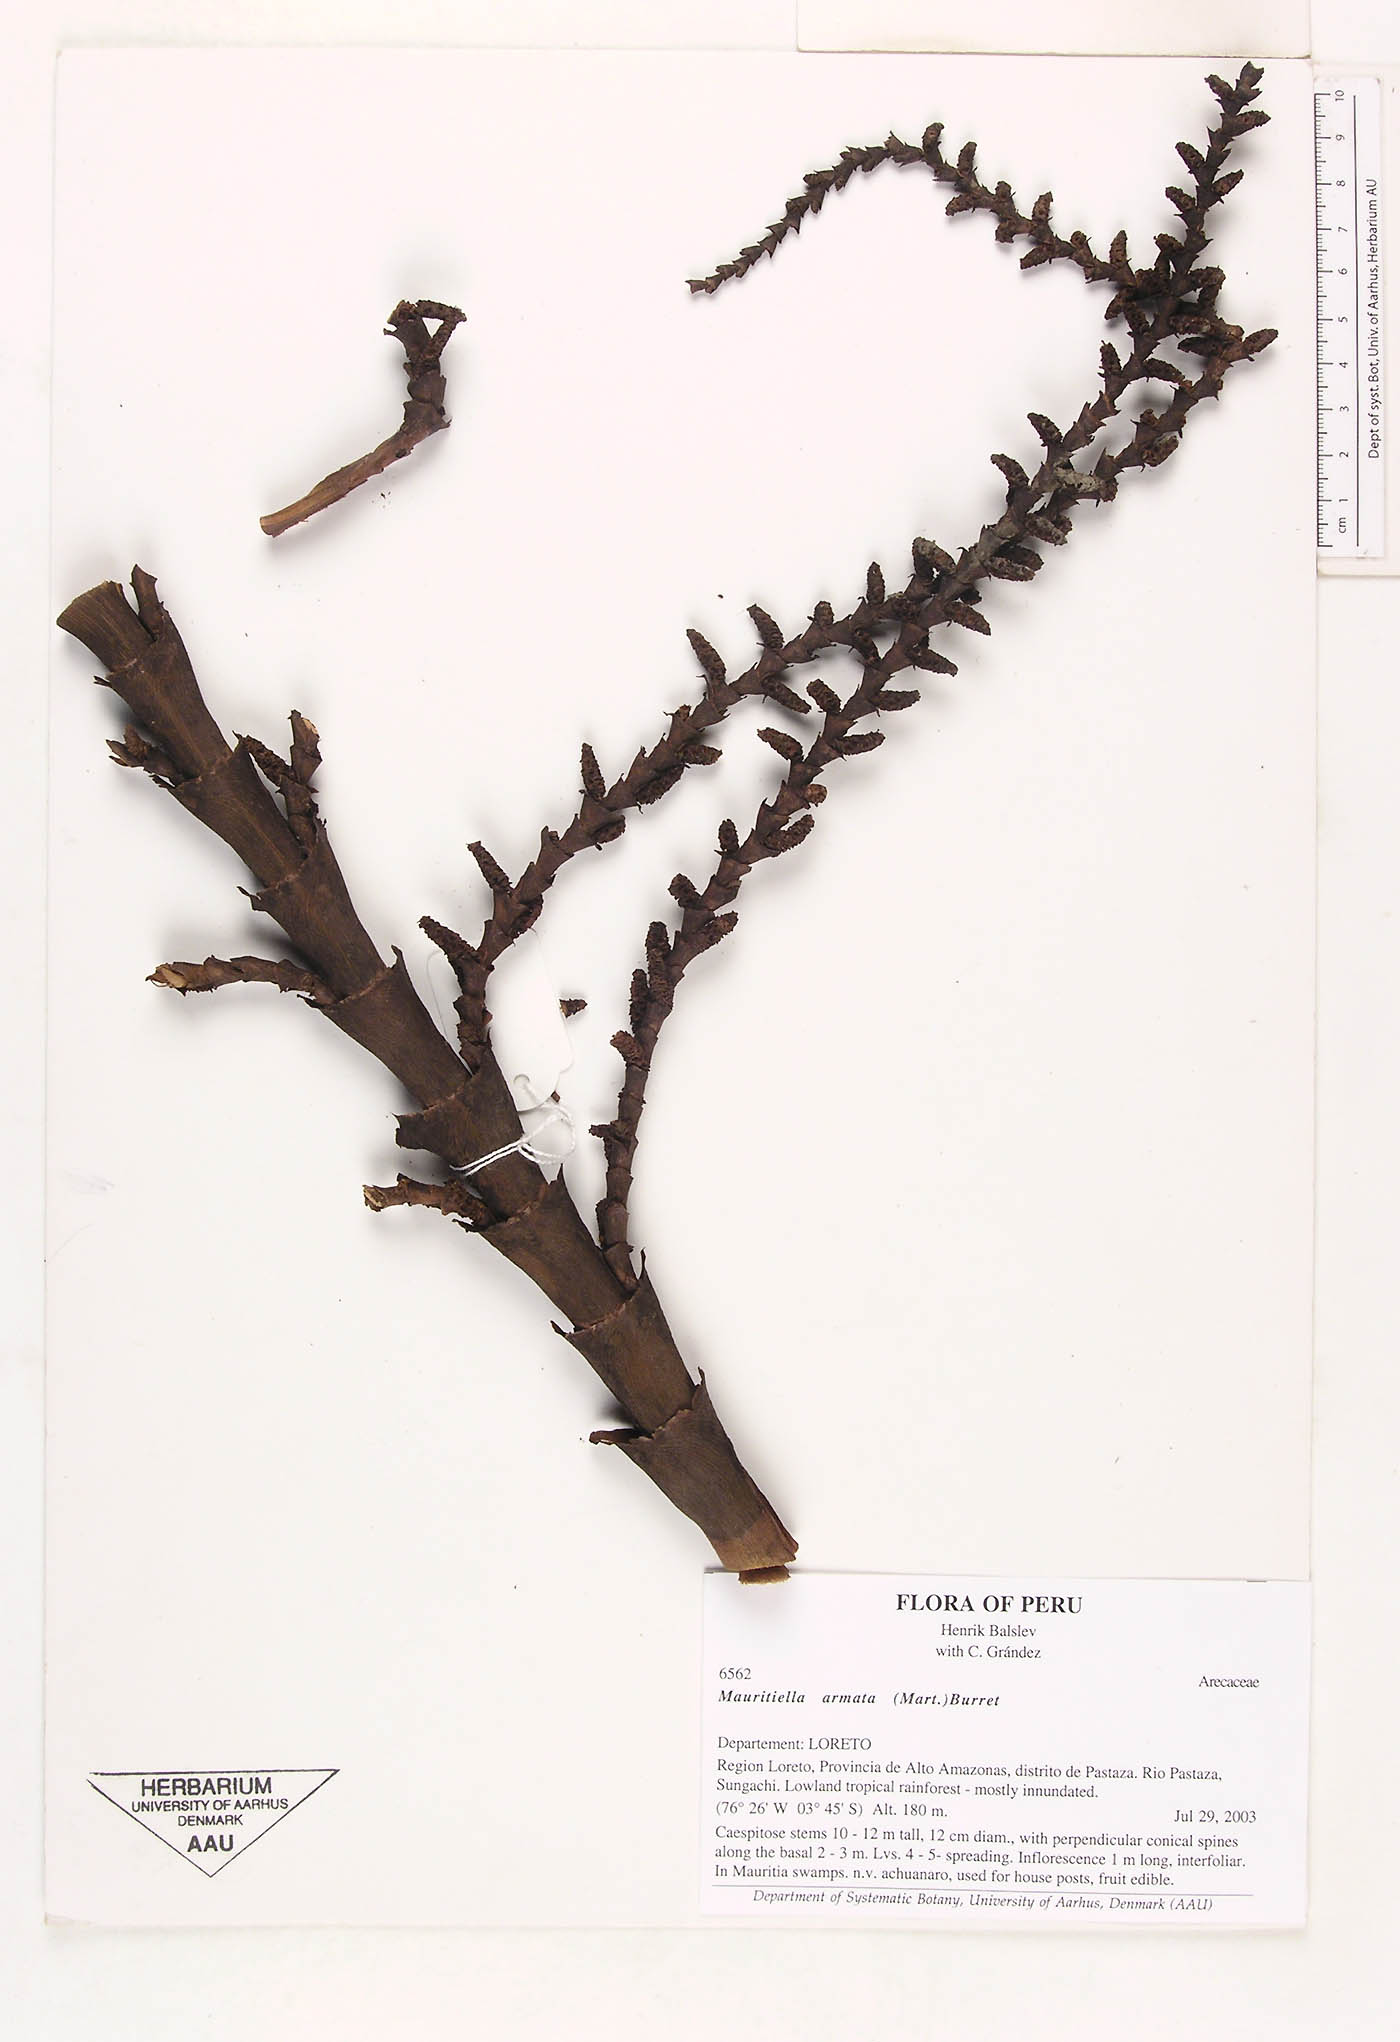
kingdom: Plantae
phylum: Tracheophyta
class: Liliopsida
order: Arecales
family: Arecaceae
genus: Mauritiella
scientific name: Mauritiella armata
